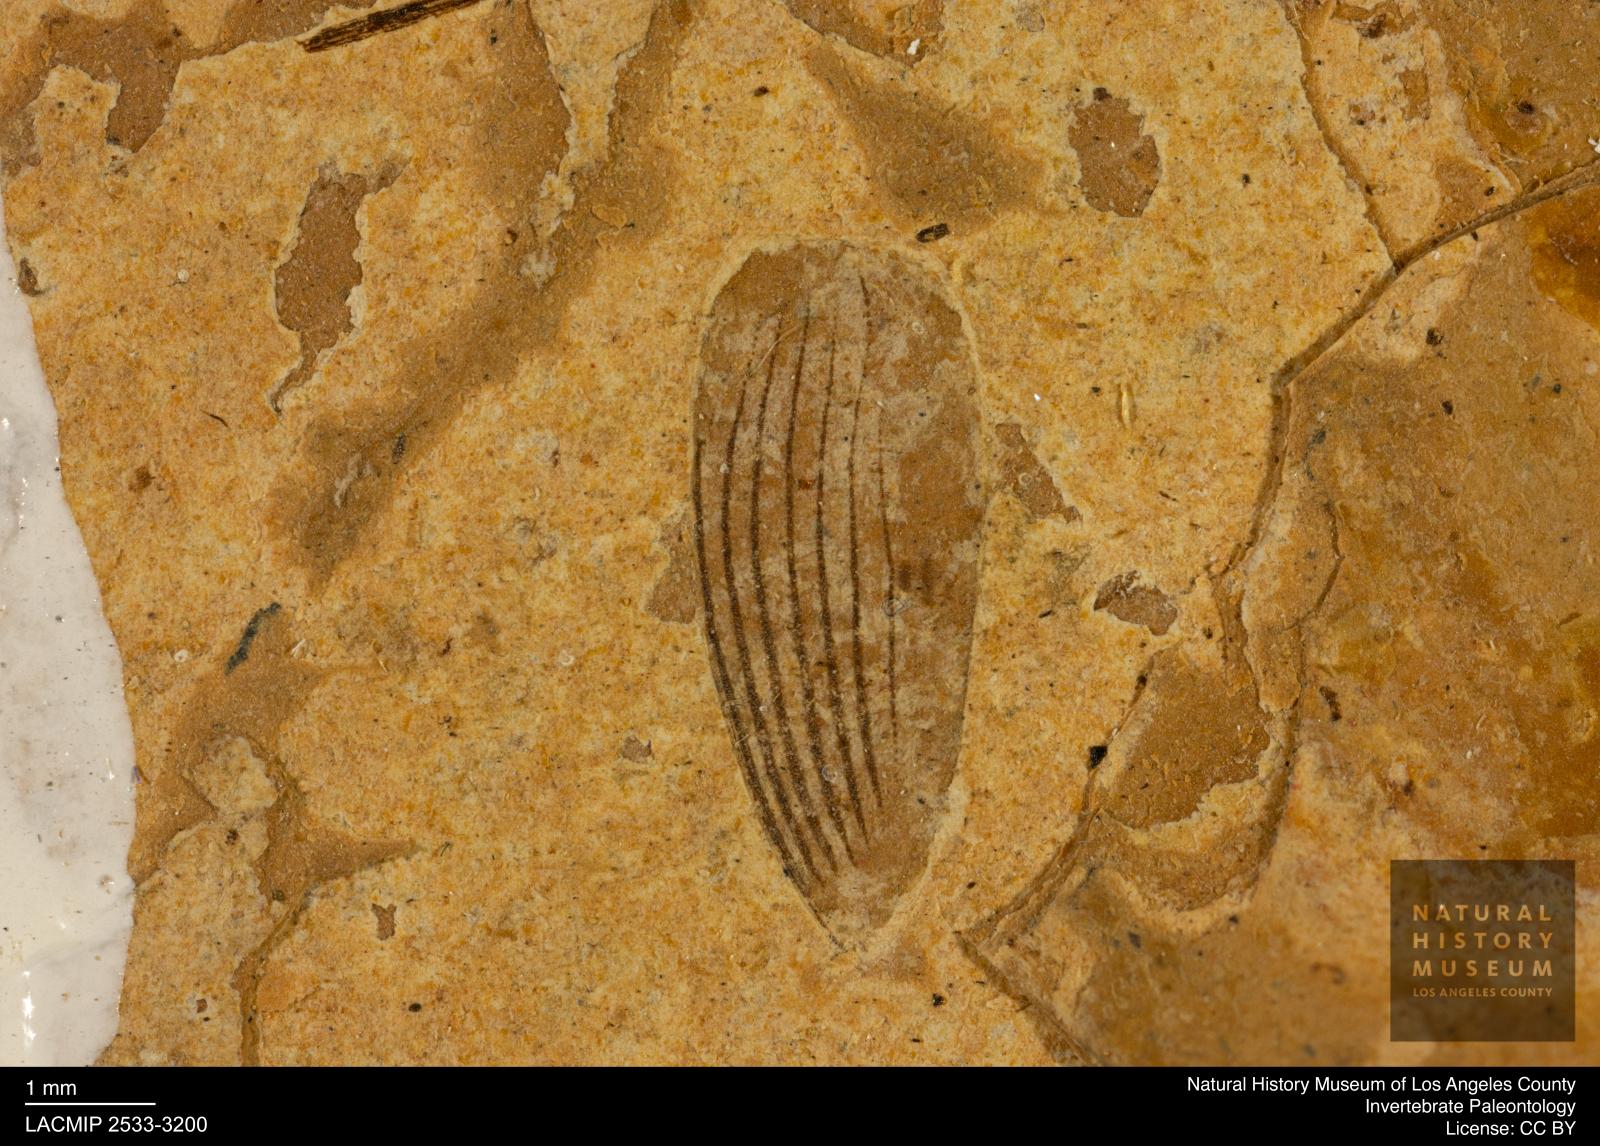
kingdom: Animalia
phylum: Arthropoda
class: Insecta
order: Coleoptera
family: Hydrophilidae
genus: Berosus
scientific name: Berosus morticinus
